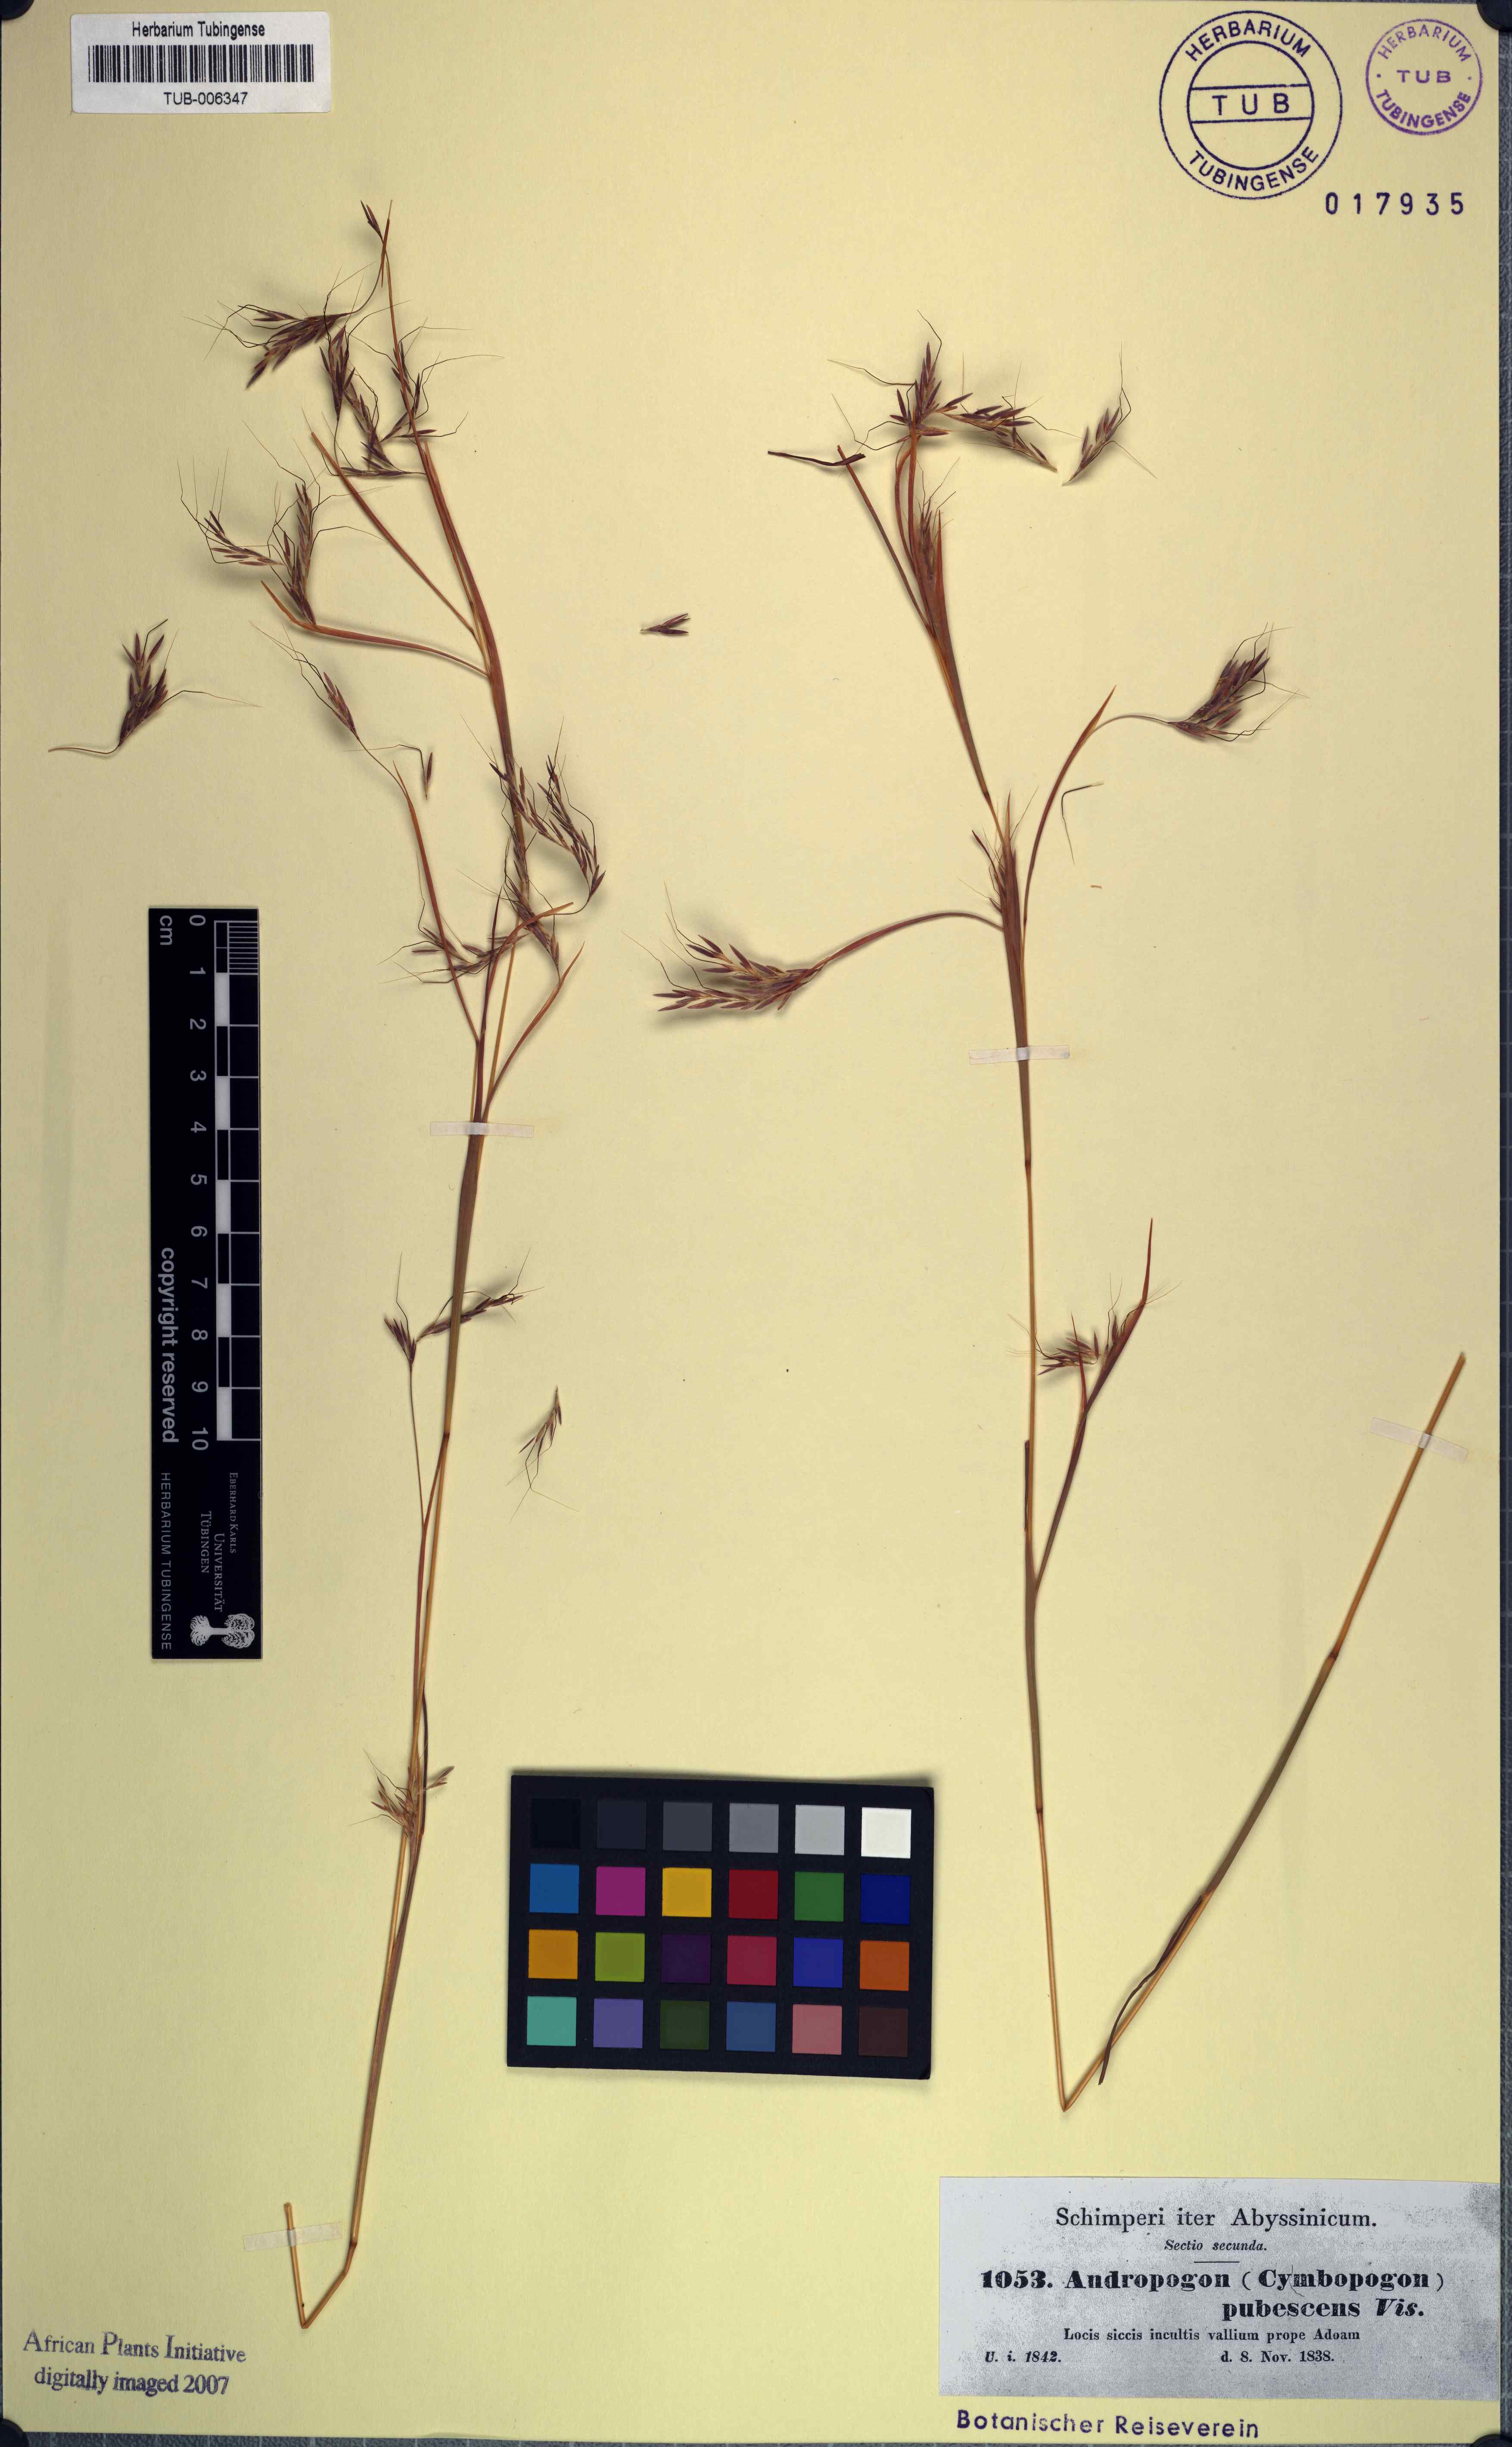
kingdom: Plantae
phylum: Tracheophyta
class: Liliopsida
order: Poales
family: Poaceae
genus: Hyparrhenia
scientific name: Hyparrhenia hirta
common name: Thatching grass
